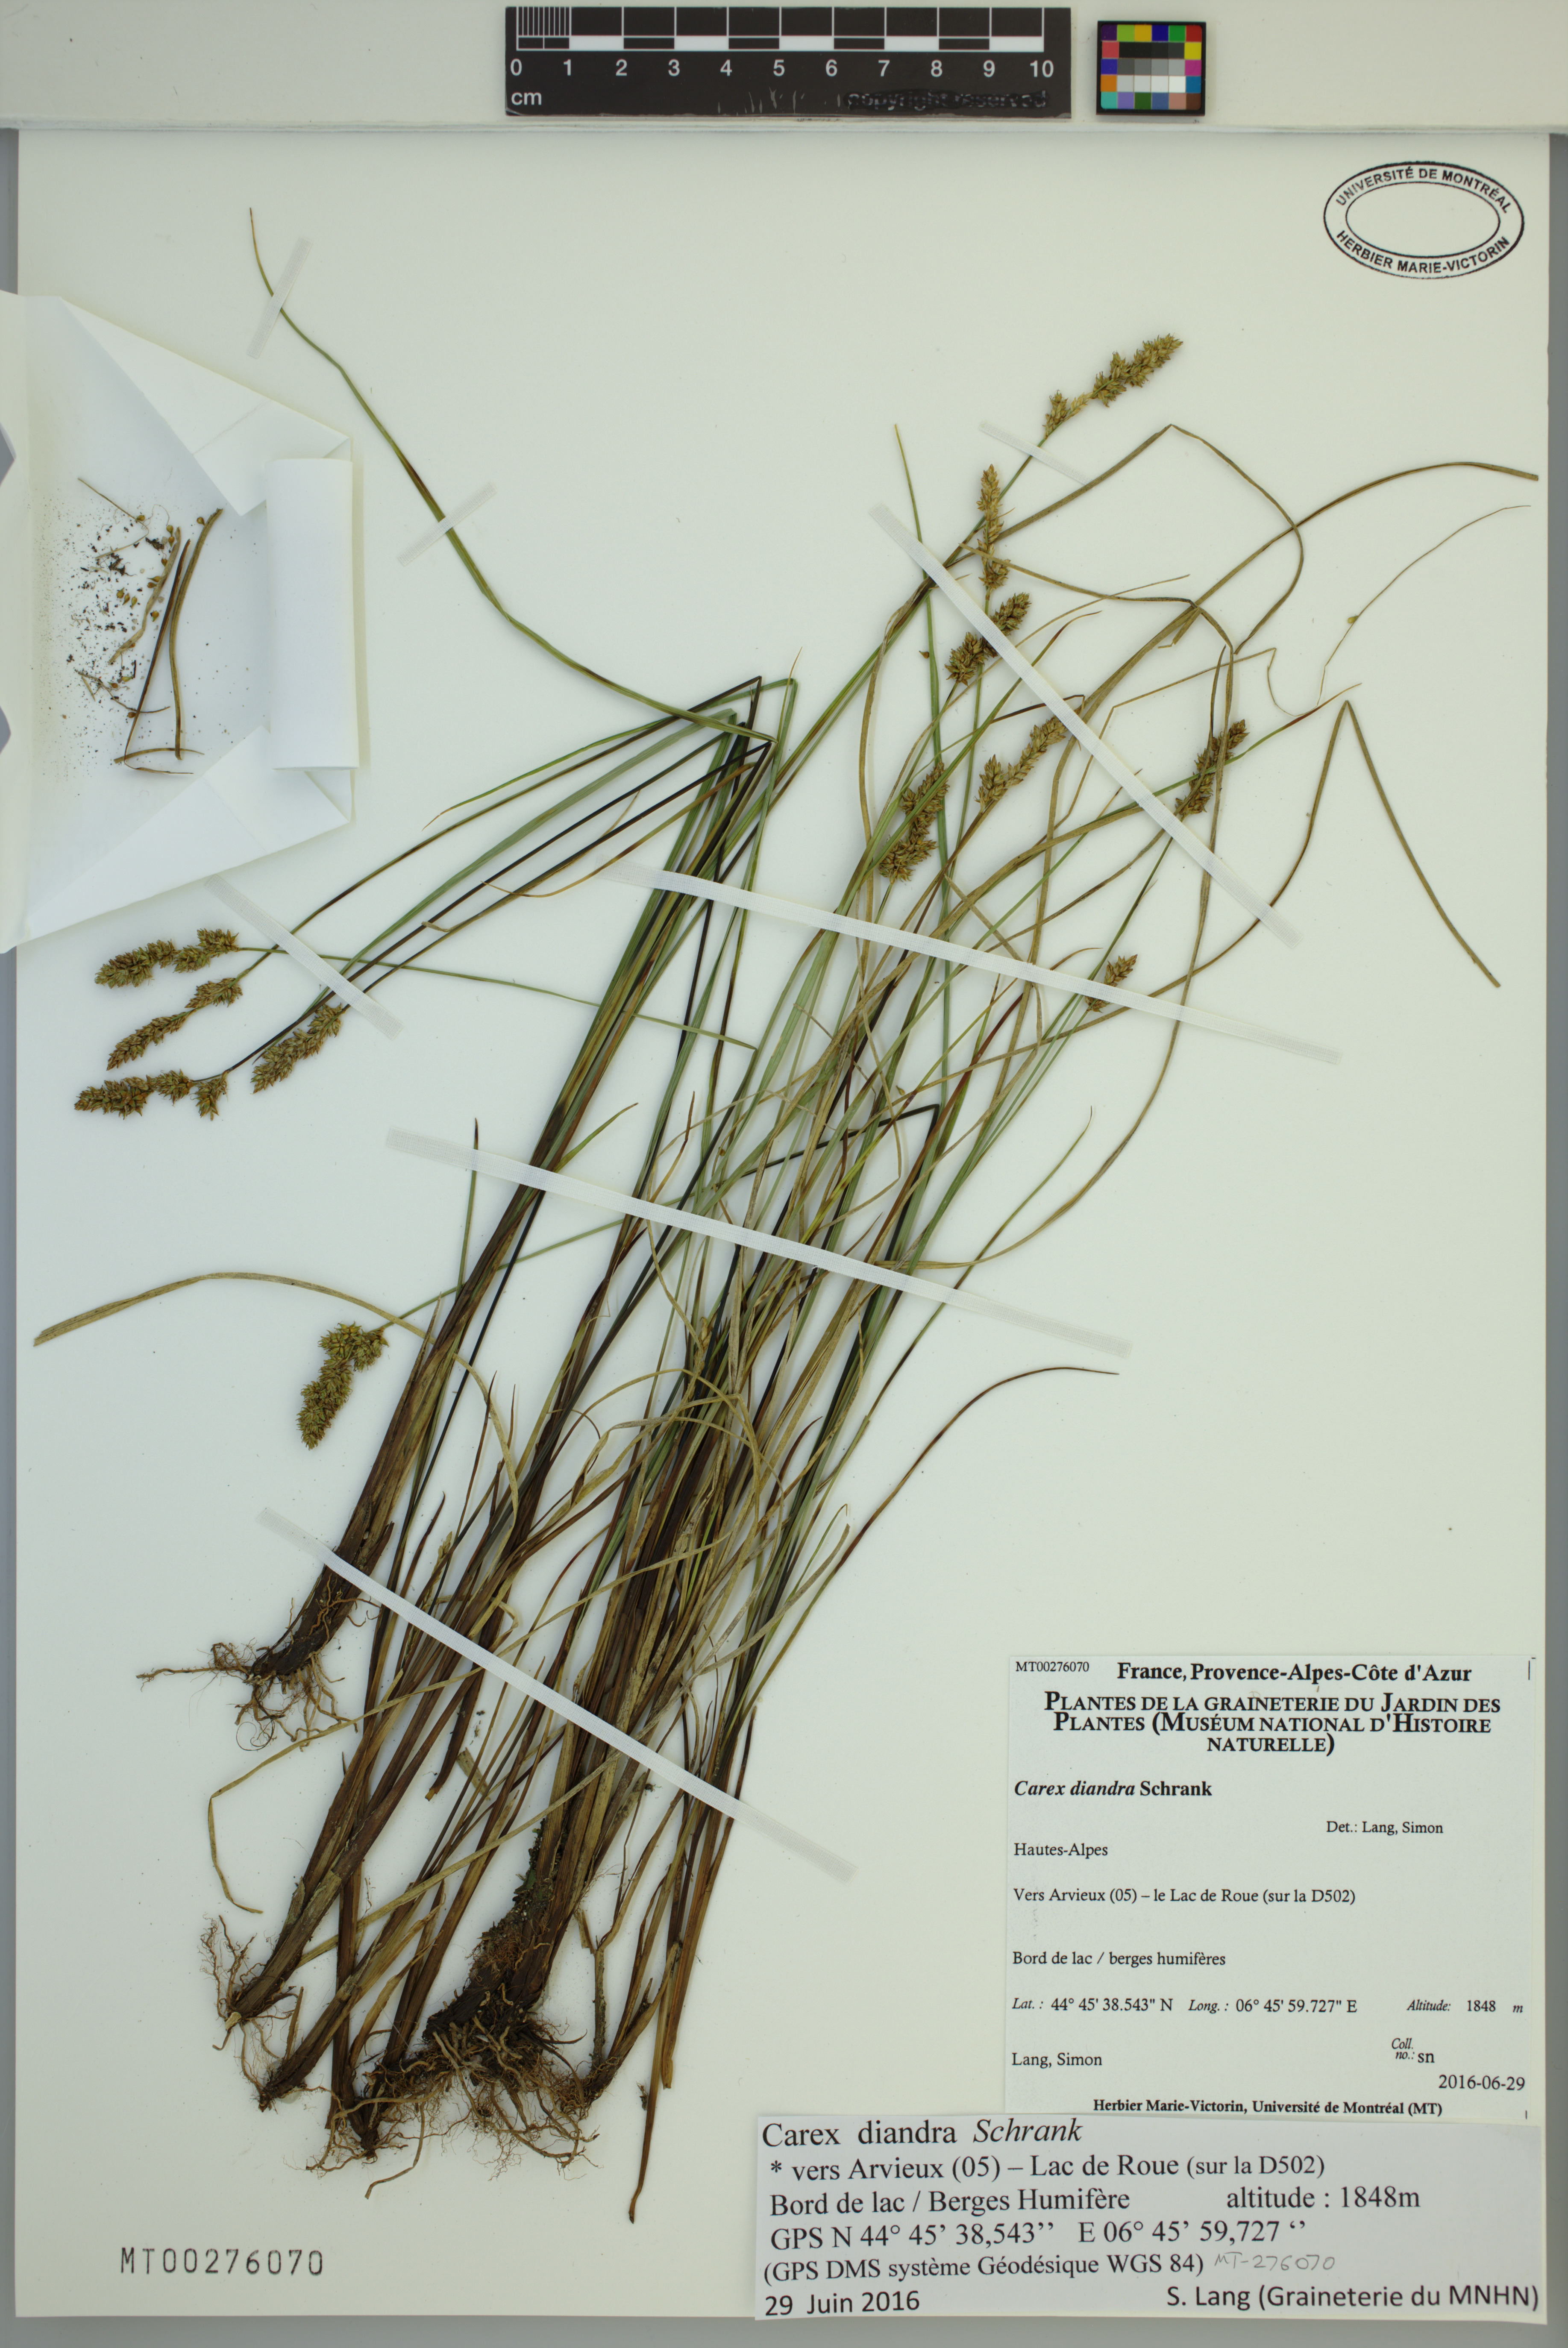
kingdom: Plantae
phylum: Tracheophyta
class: Liliopsida
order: Poales
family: Cyperaceae
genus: Carex
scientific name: Carex diandra
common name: Lesser tussock-sedge
